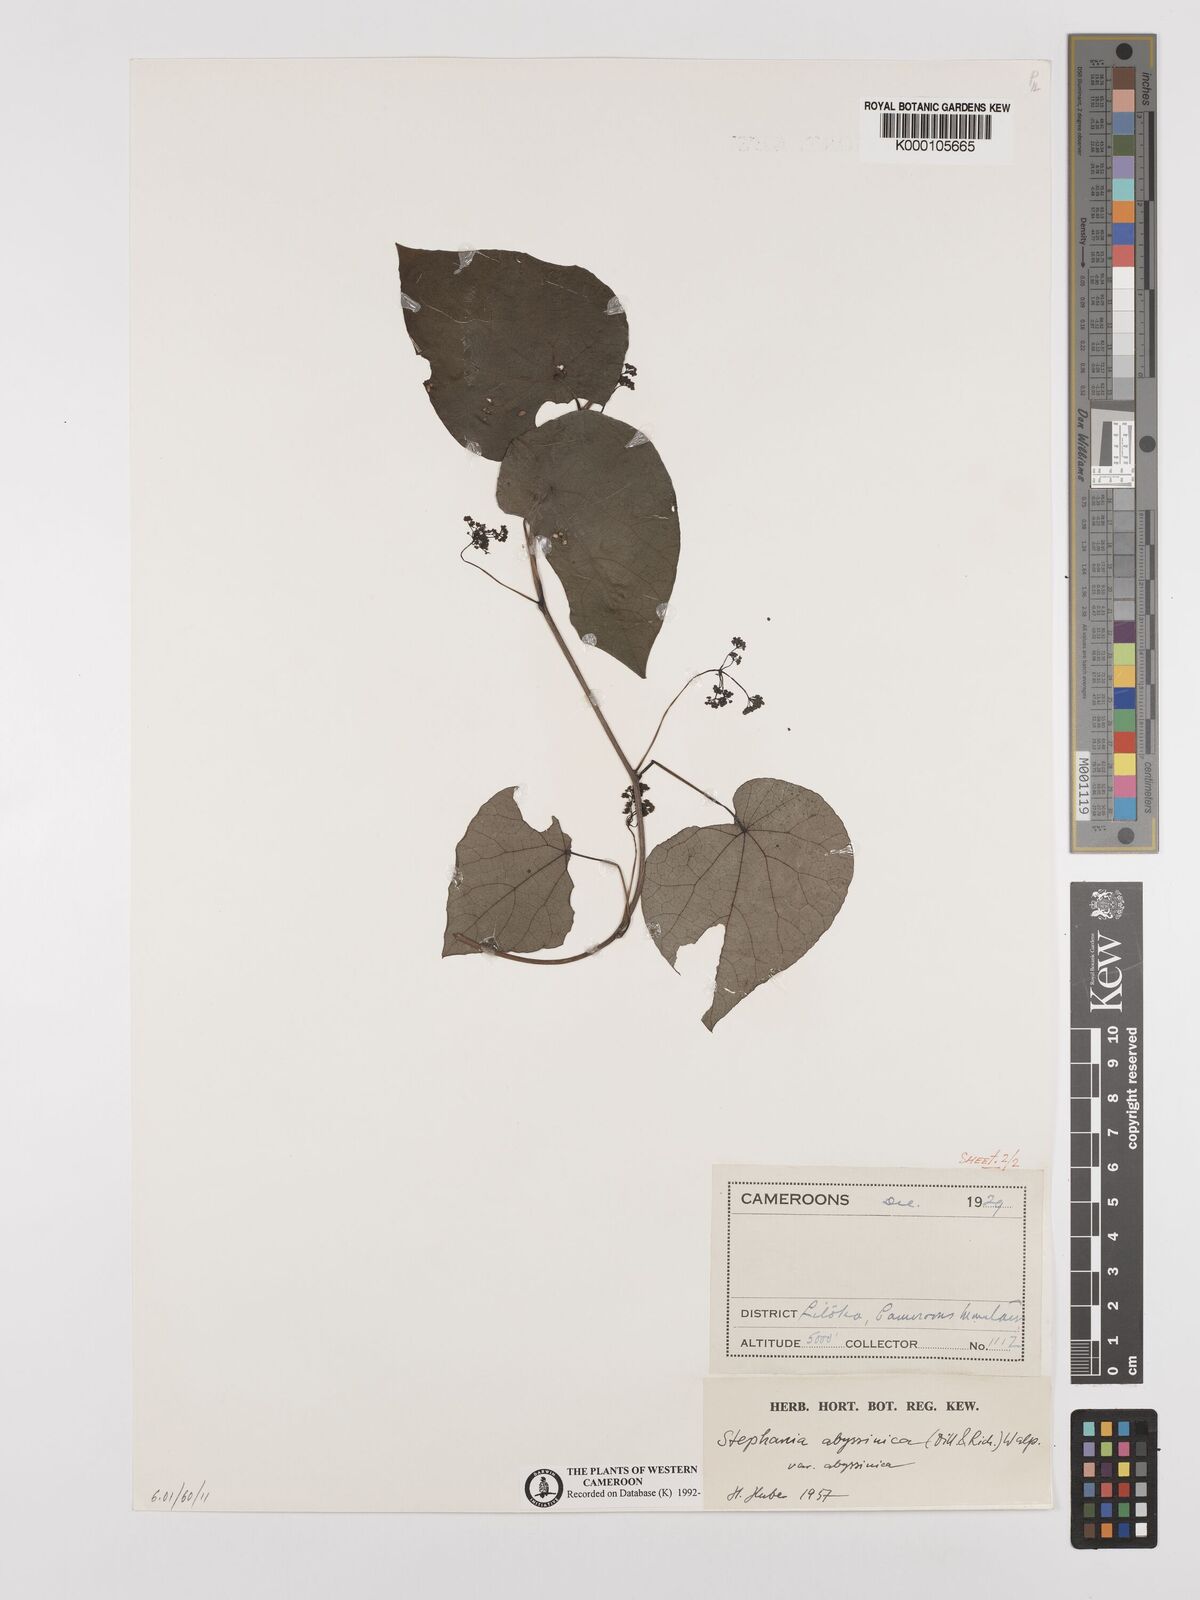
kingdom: Plantae
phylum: Tracheophyta
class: Magnoliopsida
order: Ranunculales
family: Menispermaceae
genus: Stephania
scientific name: Stephania abyssinica
